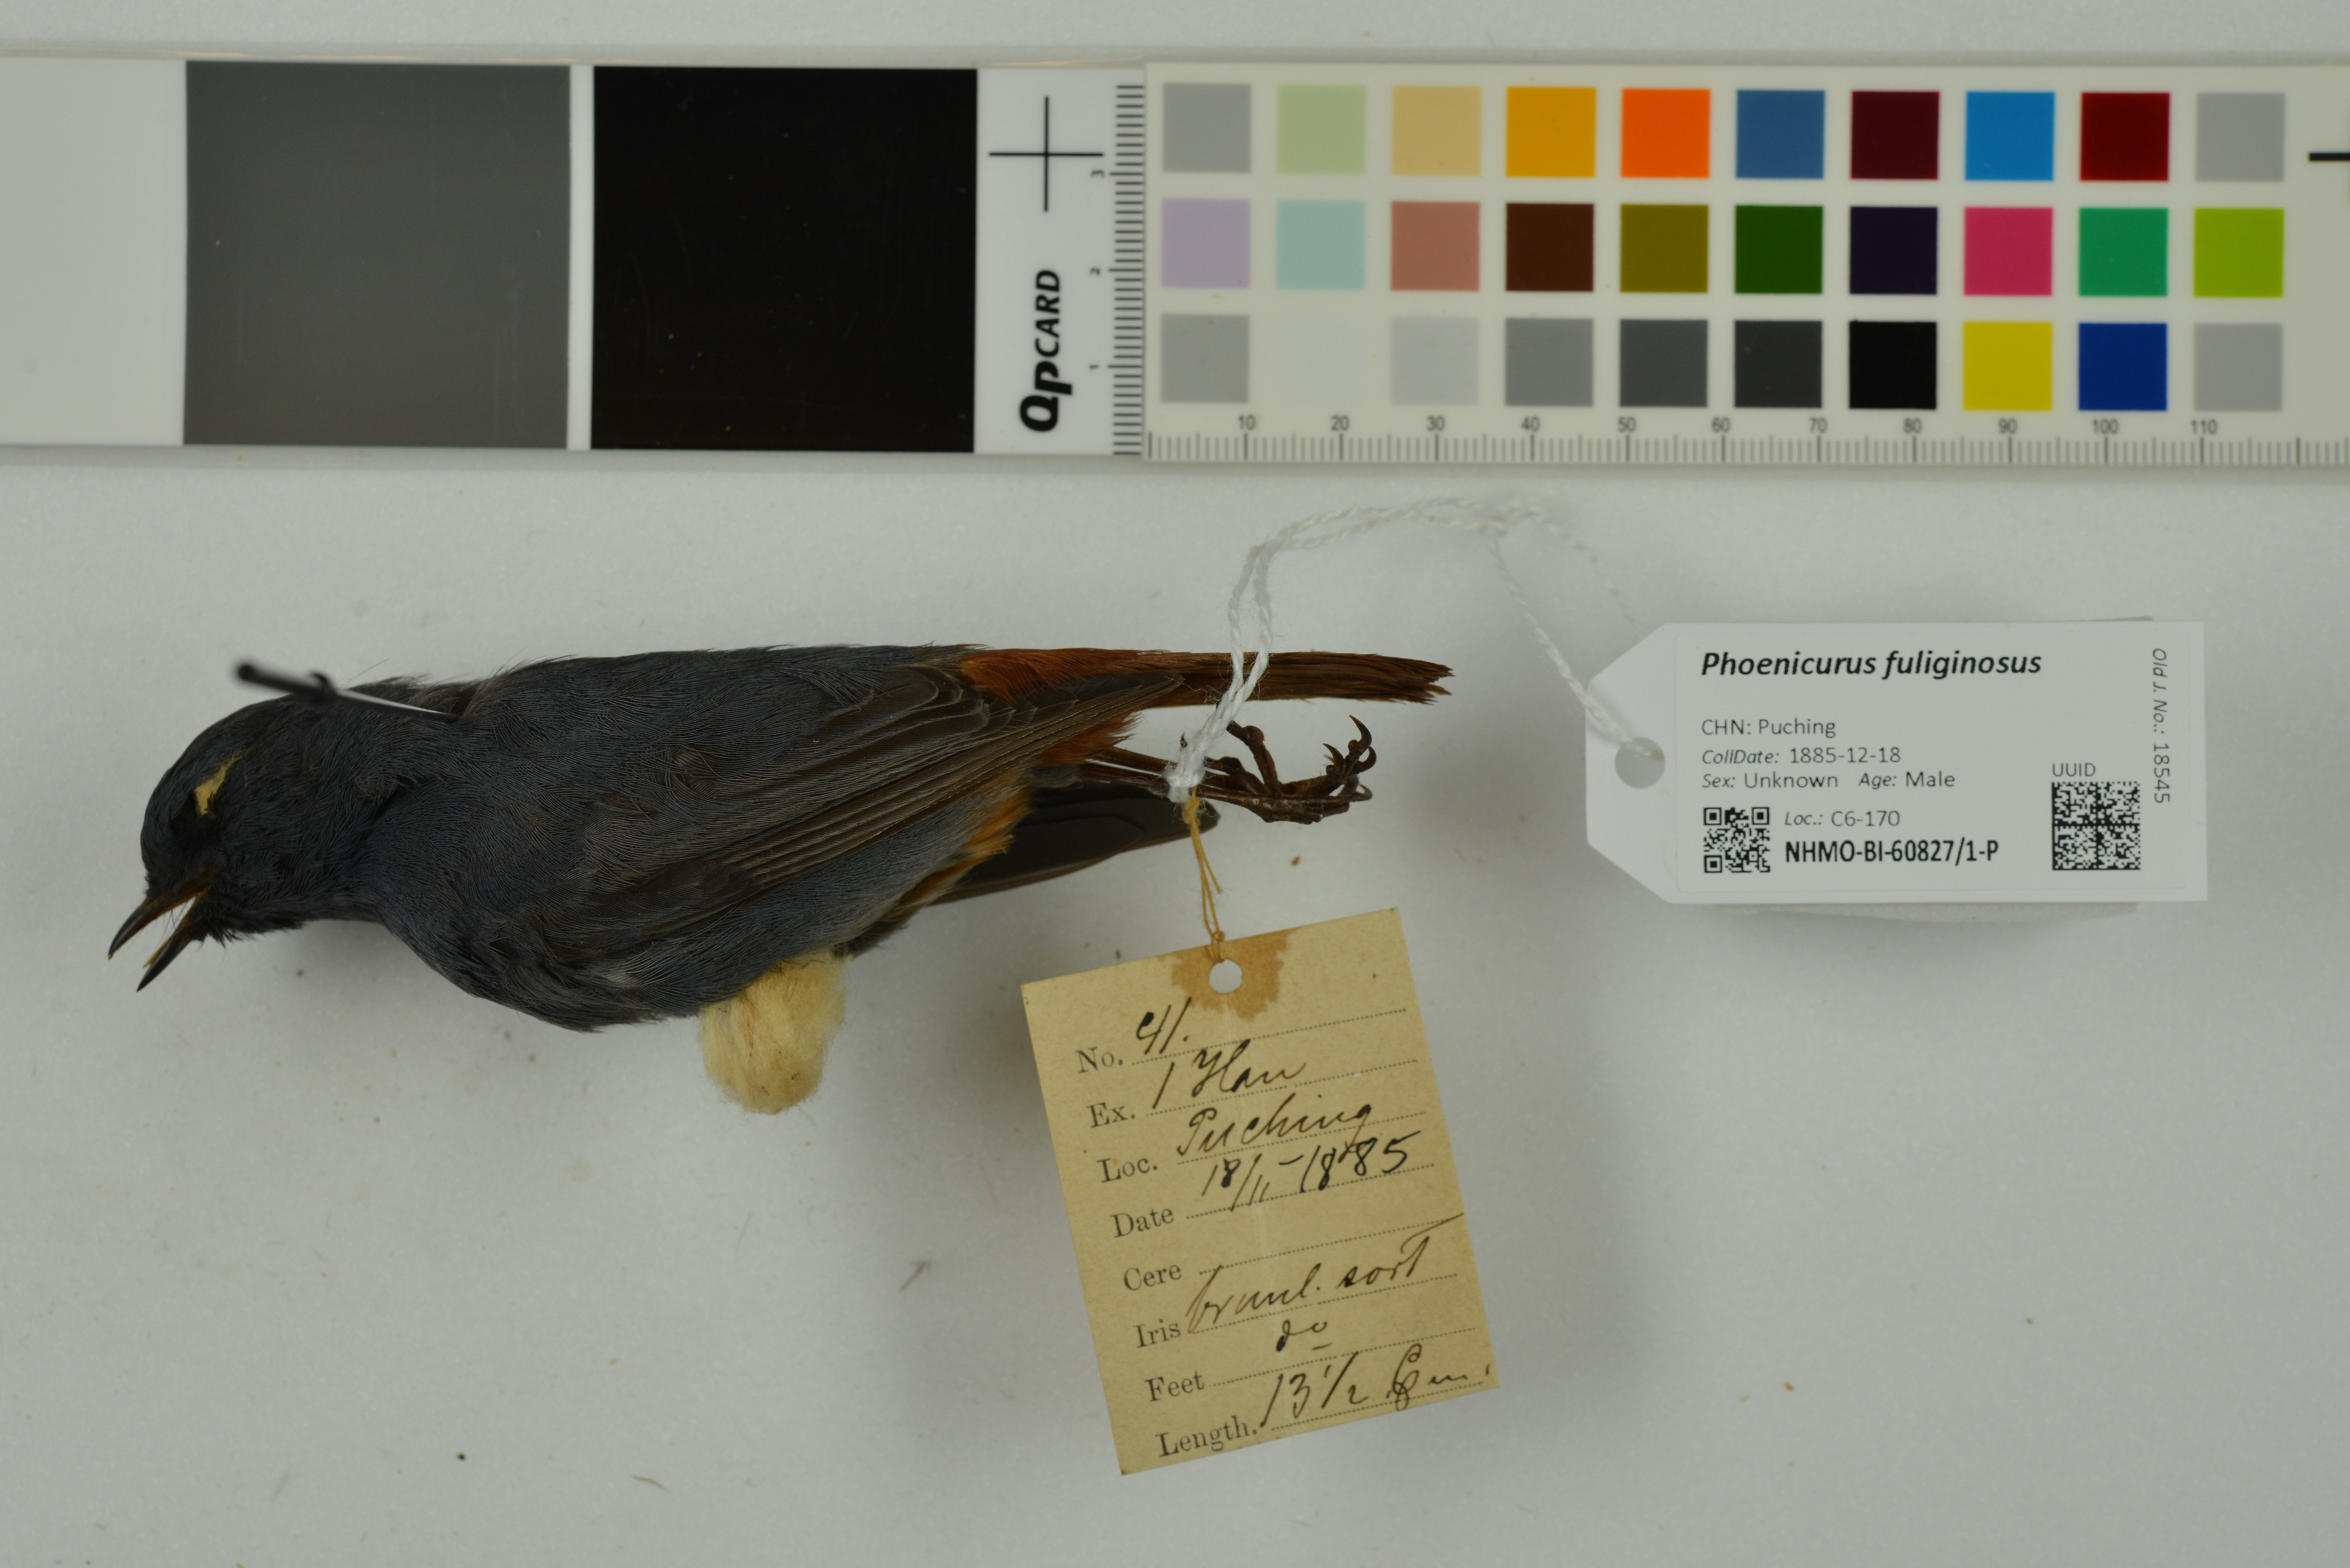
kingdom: Animalia
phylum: Chordata
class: Aves
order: Passeriformes
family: Muscicapidae
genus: Phoenicurus
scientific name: Phoenicurus fuliginosus
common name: Plumbeous water redstart
